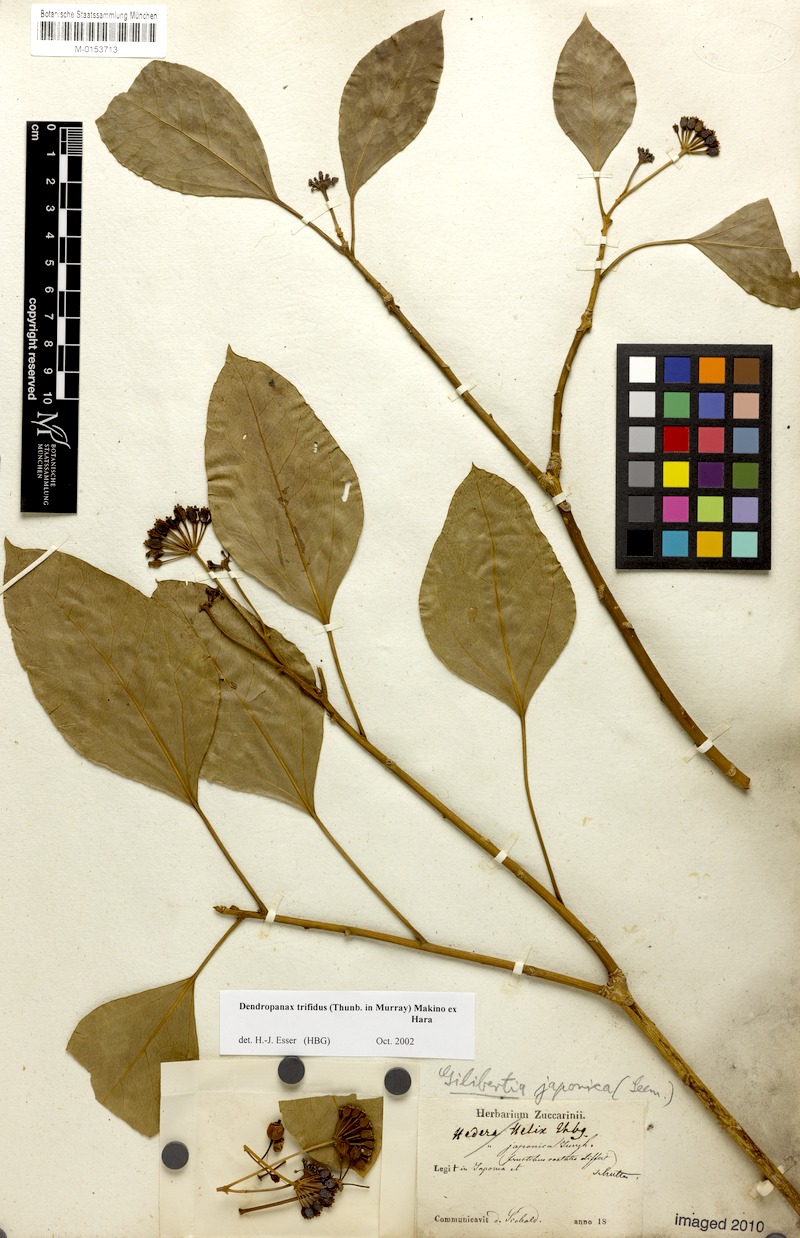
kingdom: Plantae
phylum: Tracheophyta
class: Magnoliopsida
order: Apiales
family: Araliaceae
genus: Dendropanax
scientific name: Dendropanax trifidus
